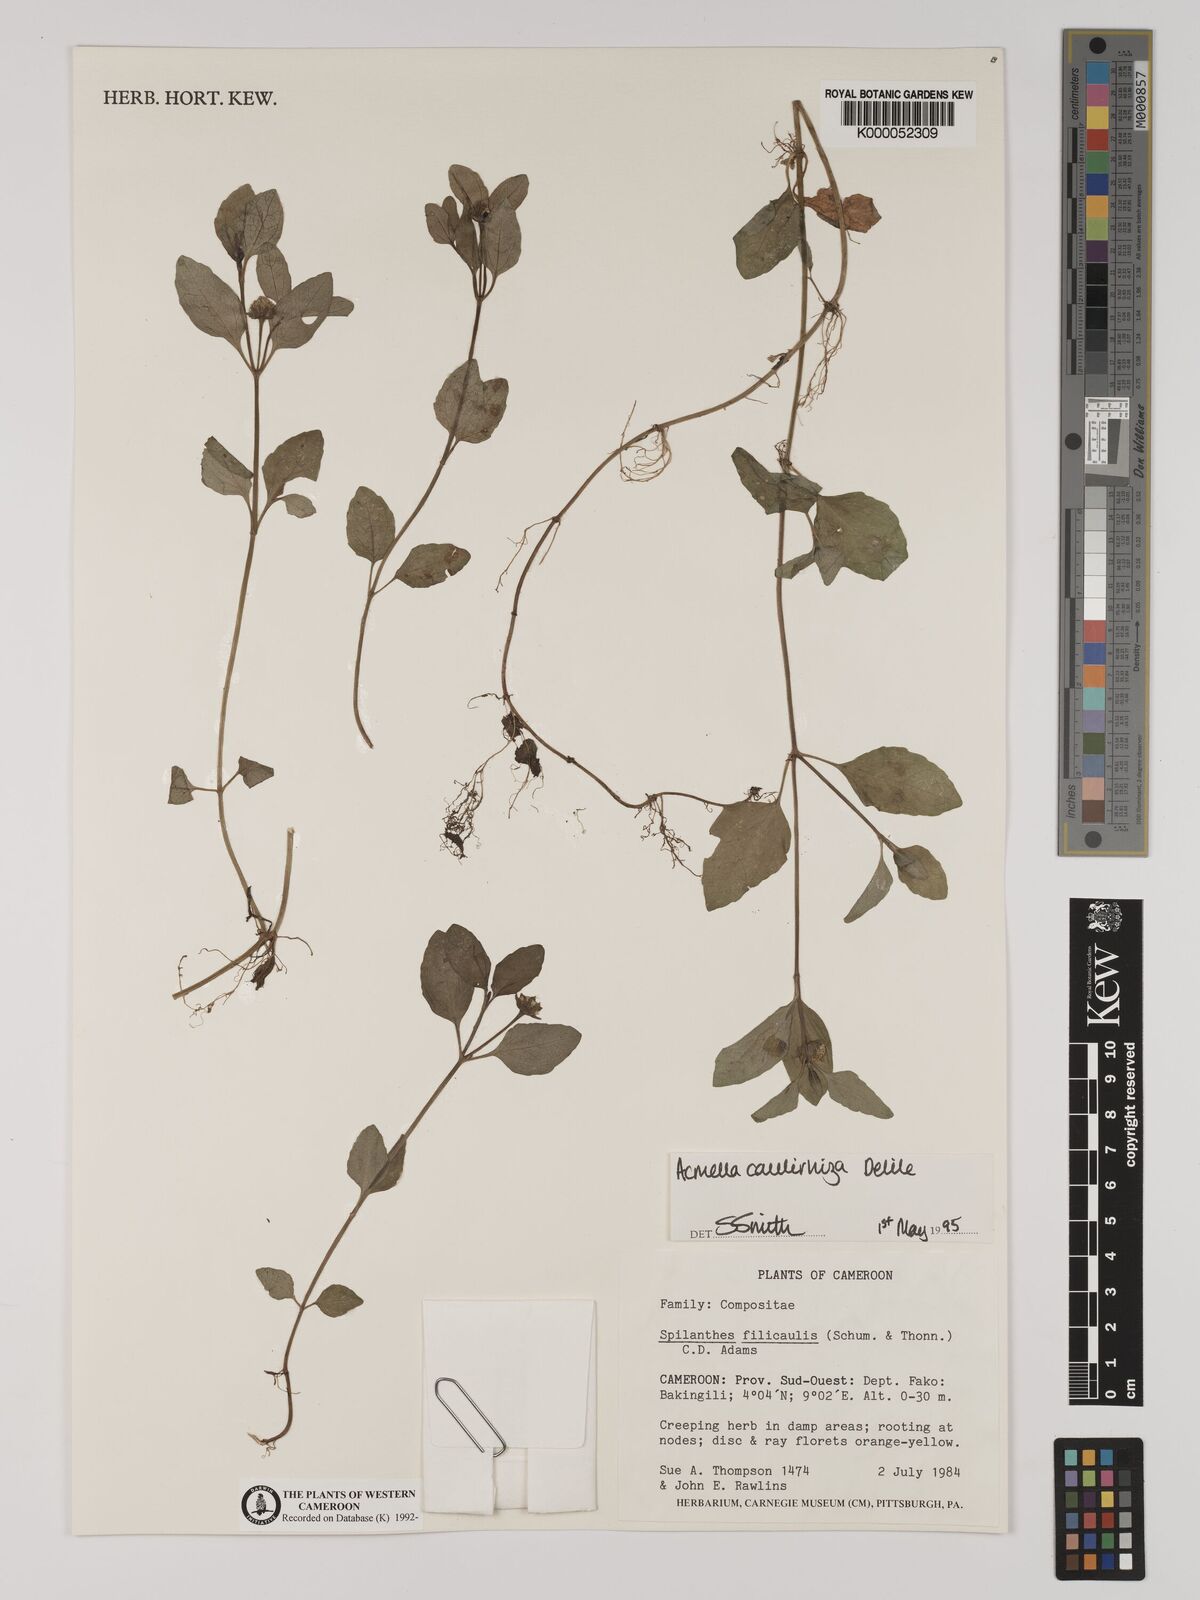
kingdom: Plantae
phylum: Tracheophyta
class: Magnoliopsida
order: Asterales
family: Asteraceae
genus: Acmella
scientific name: Acmella caulirhiza
